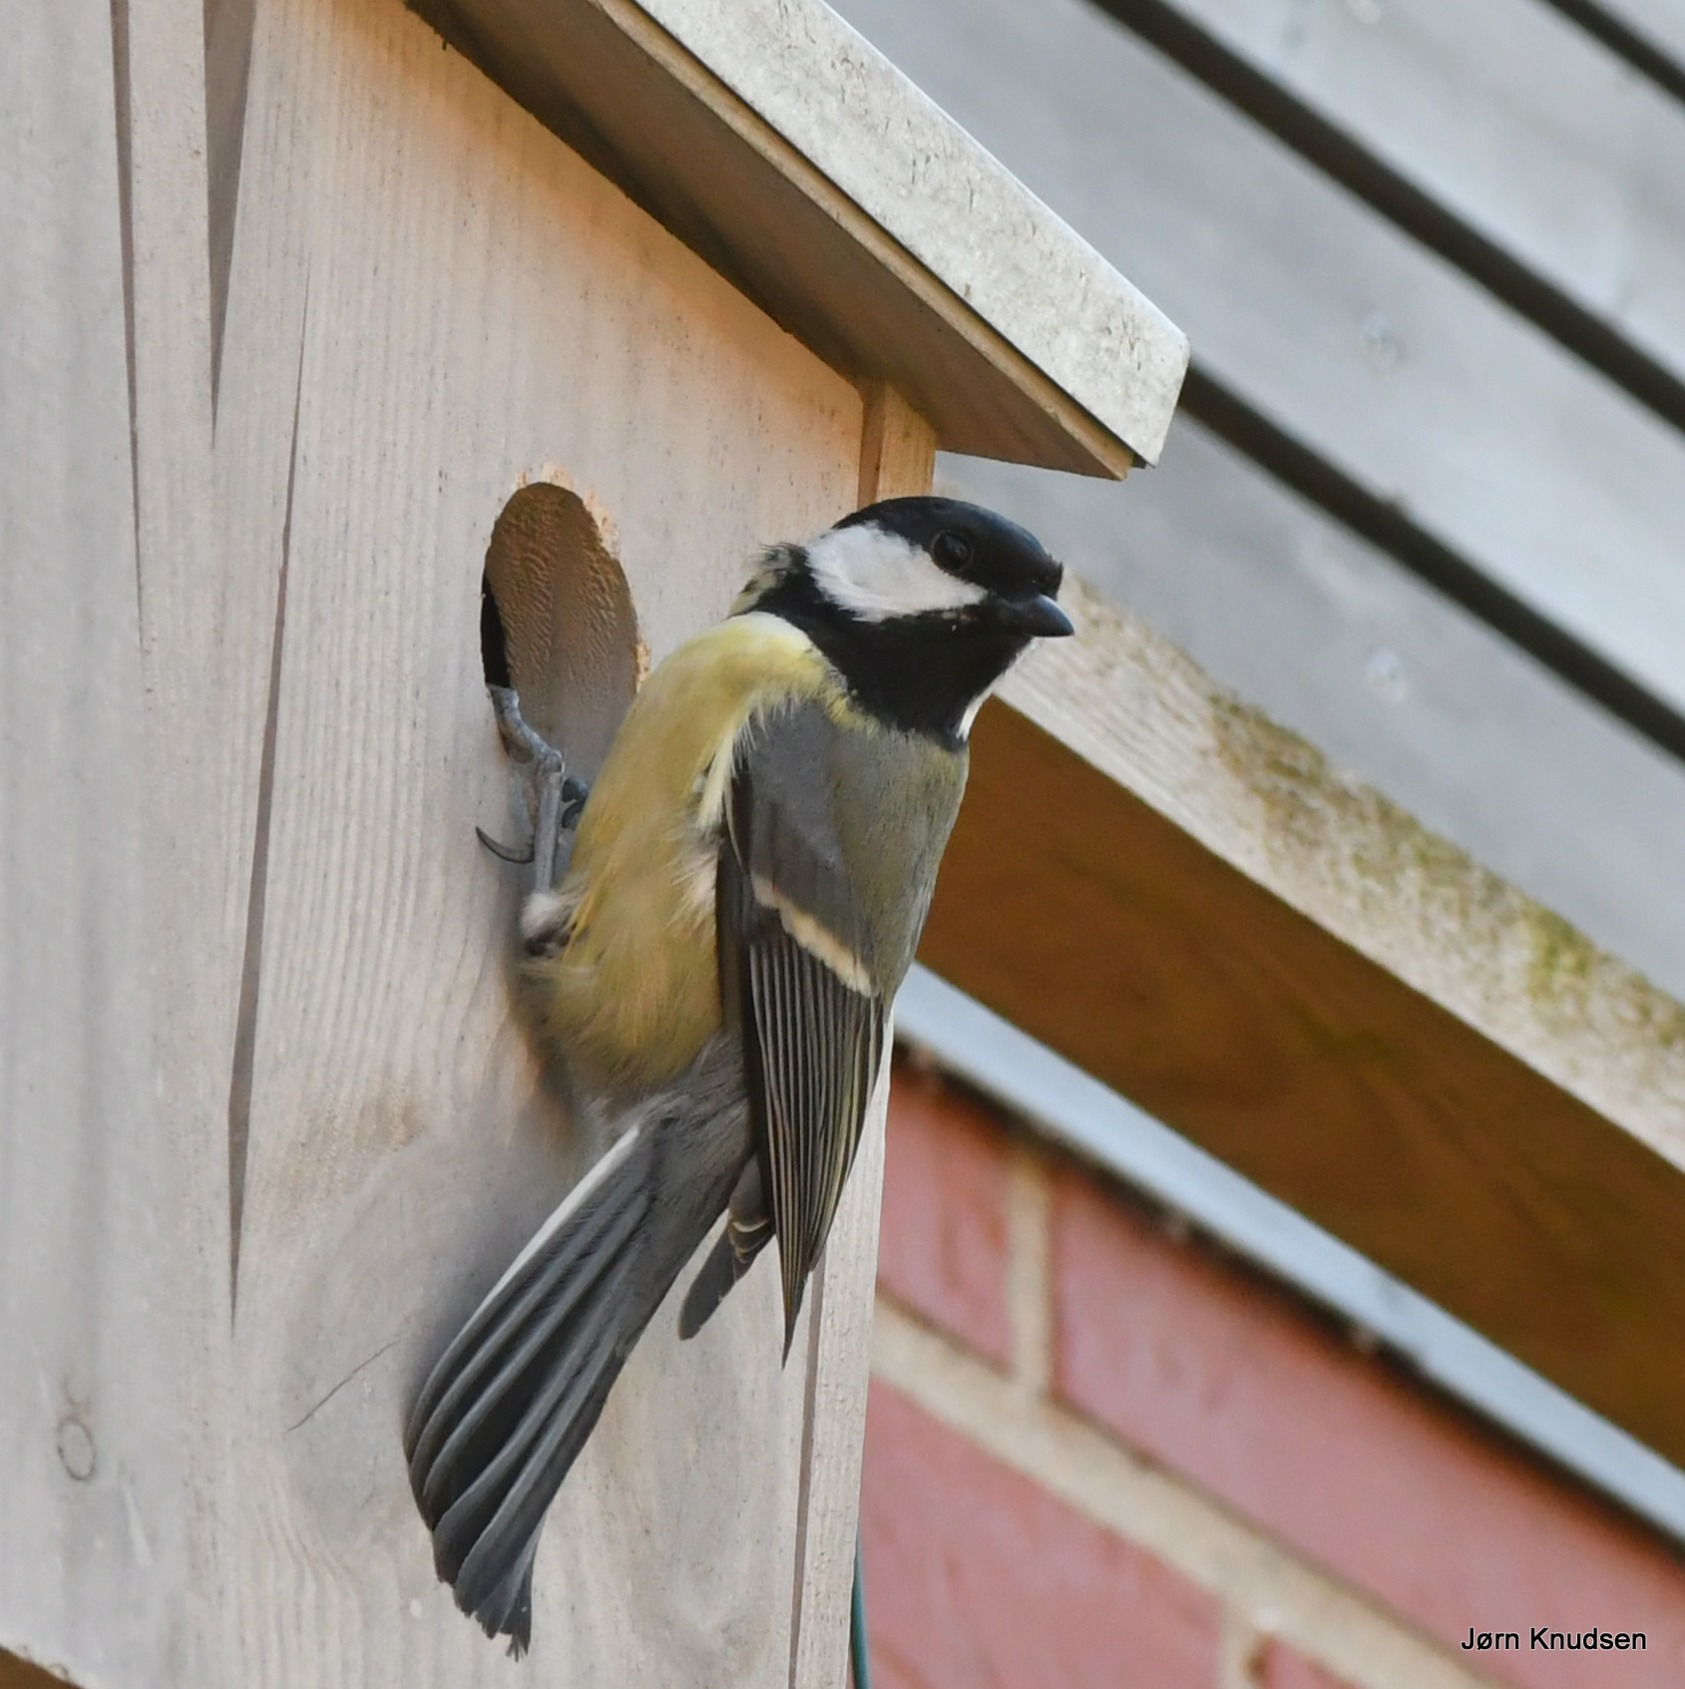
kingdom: Animalia
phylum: Chordata
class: Aves
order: Passeriformes
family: Paridae
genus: Parus
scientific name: Parus major
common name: Musvit
